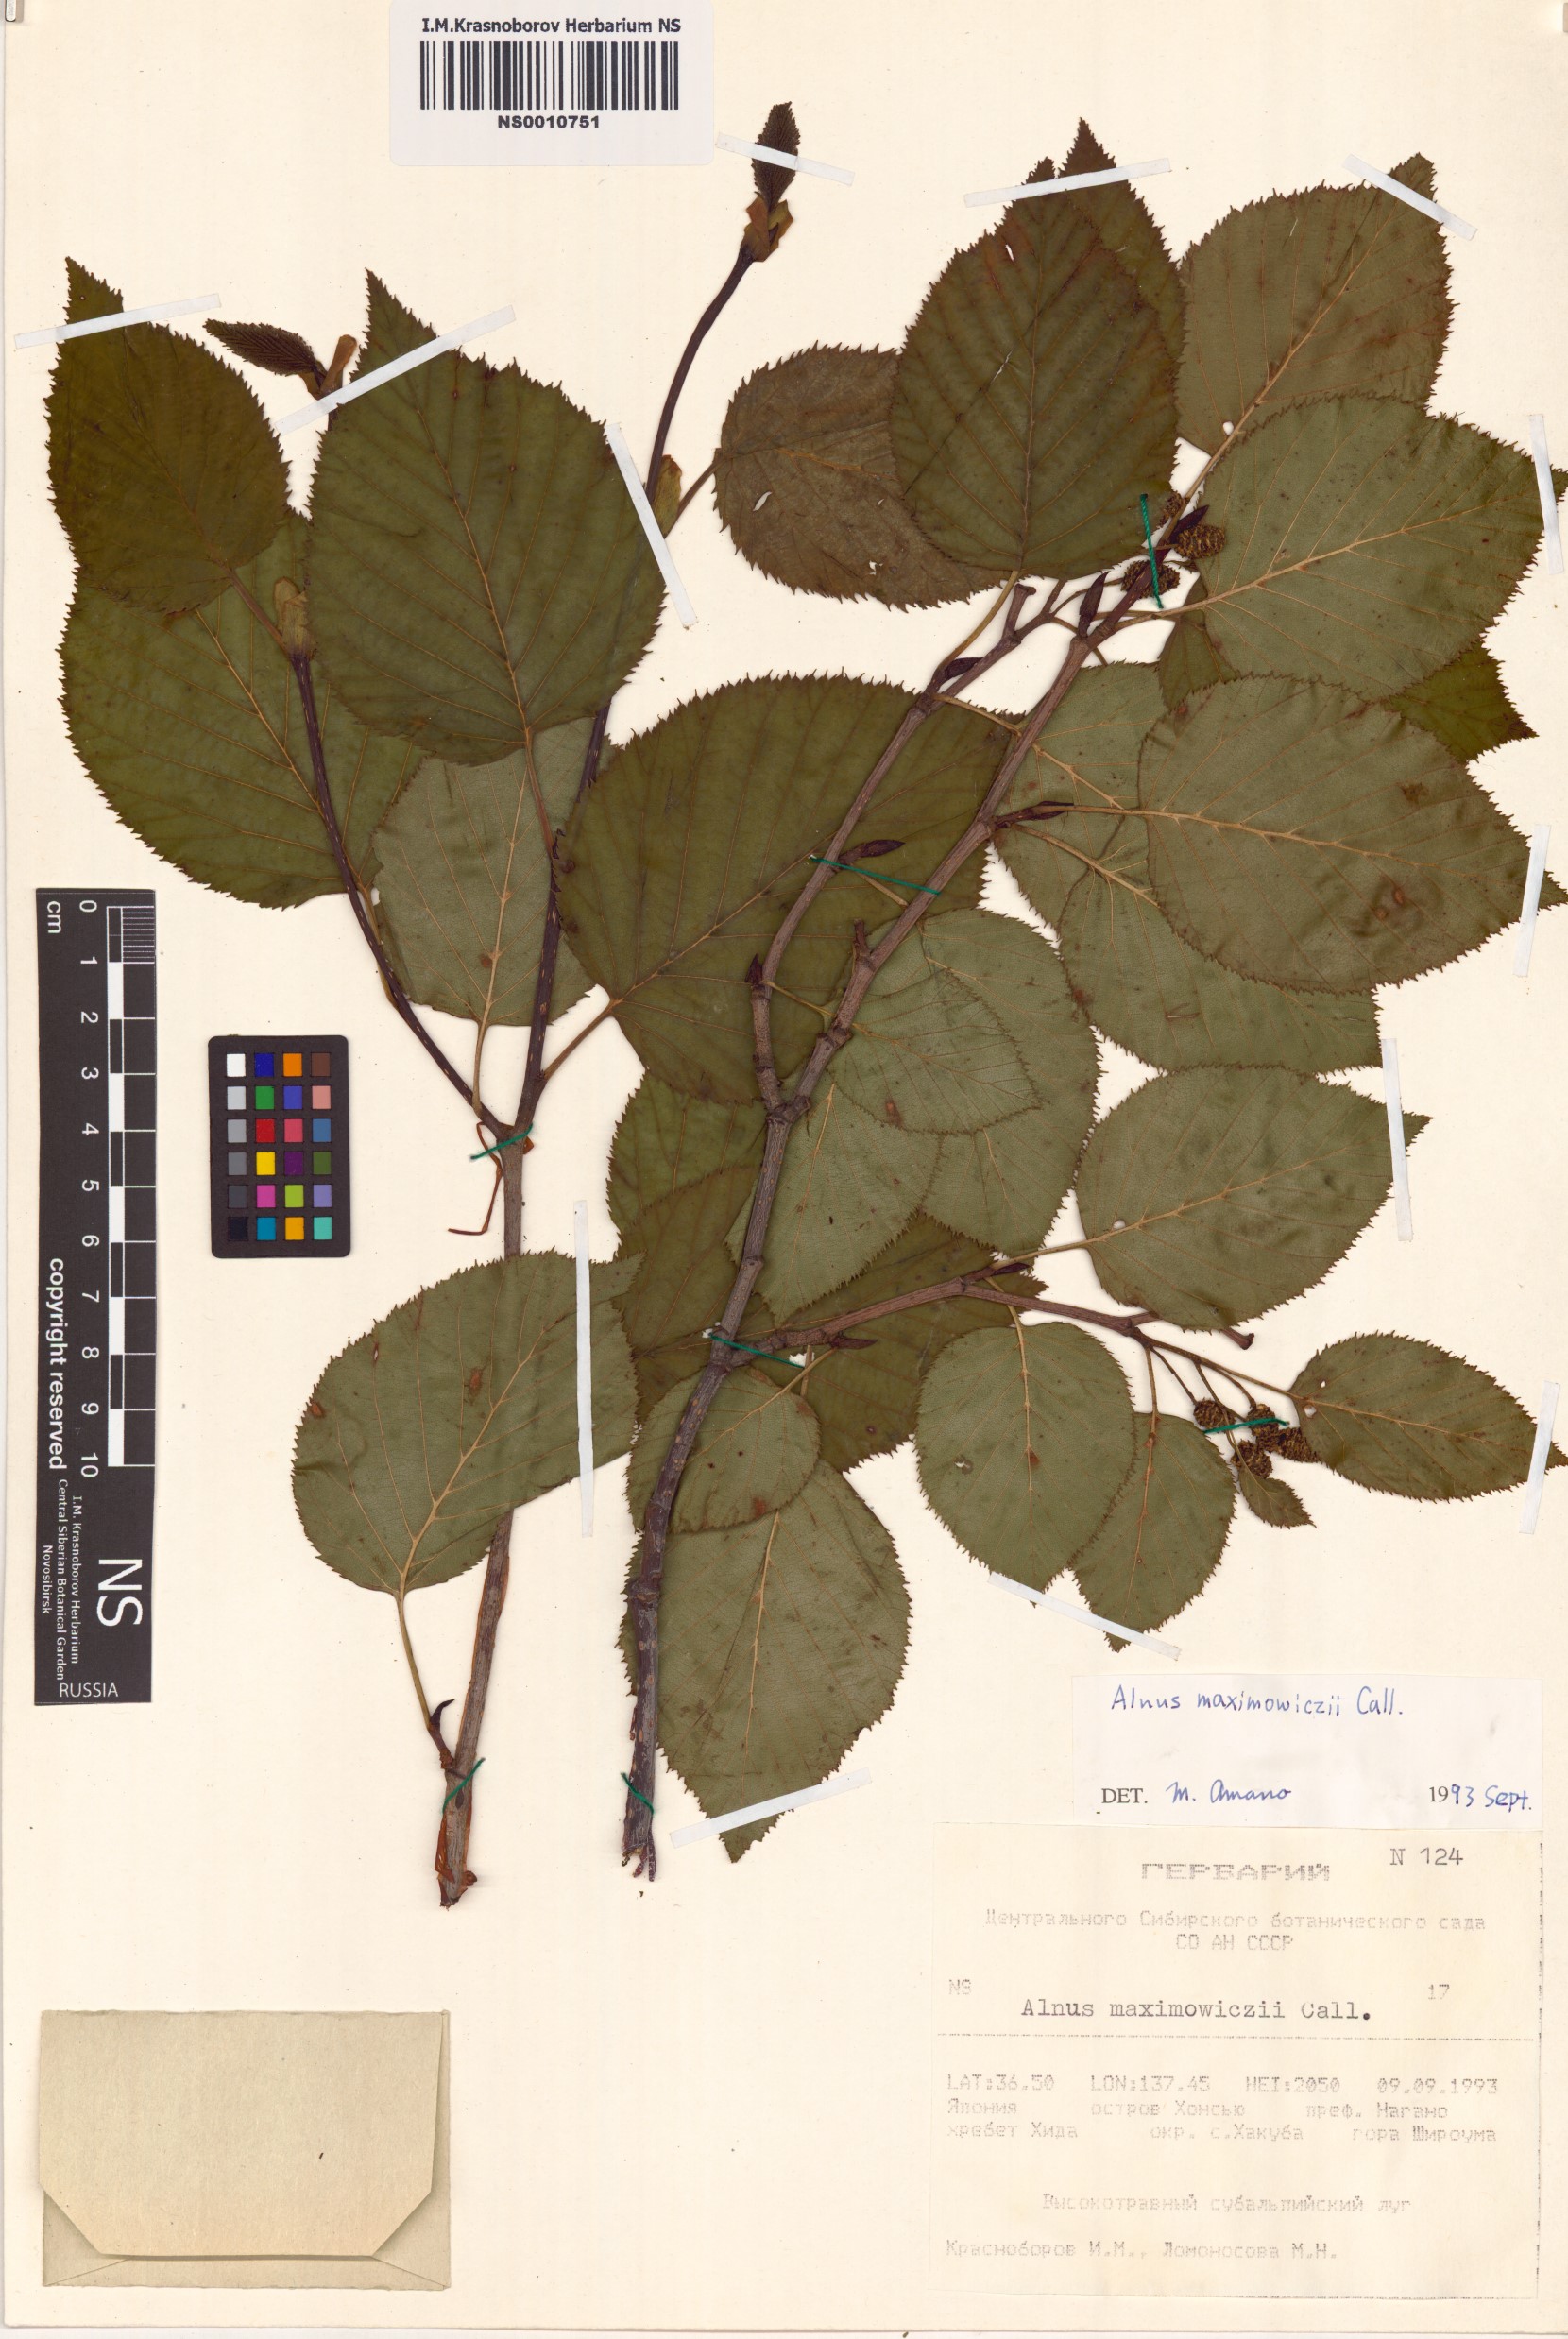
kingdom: Plantae
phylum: Tracheophyta
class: Magnoliopsida
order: Fagales
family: Betulaceae
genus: Alnus
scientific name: Alnus maximowiczii
